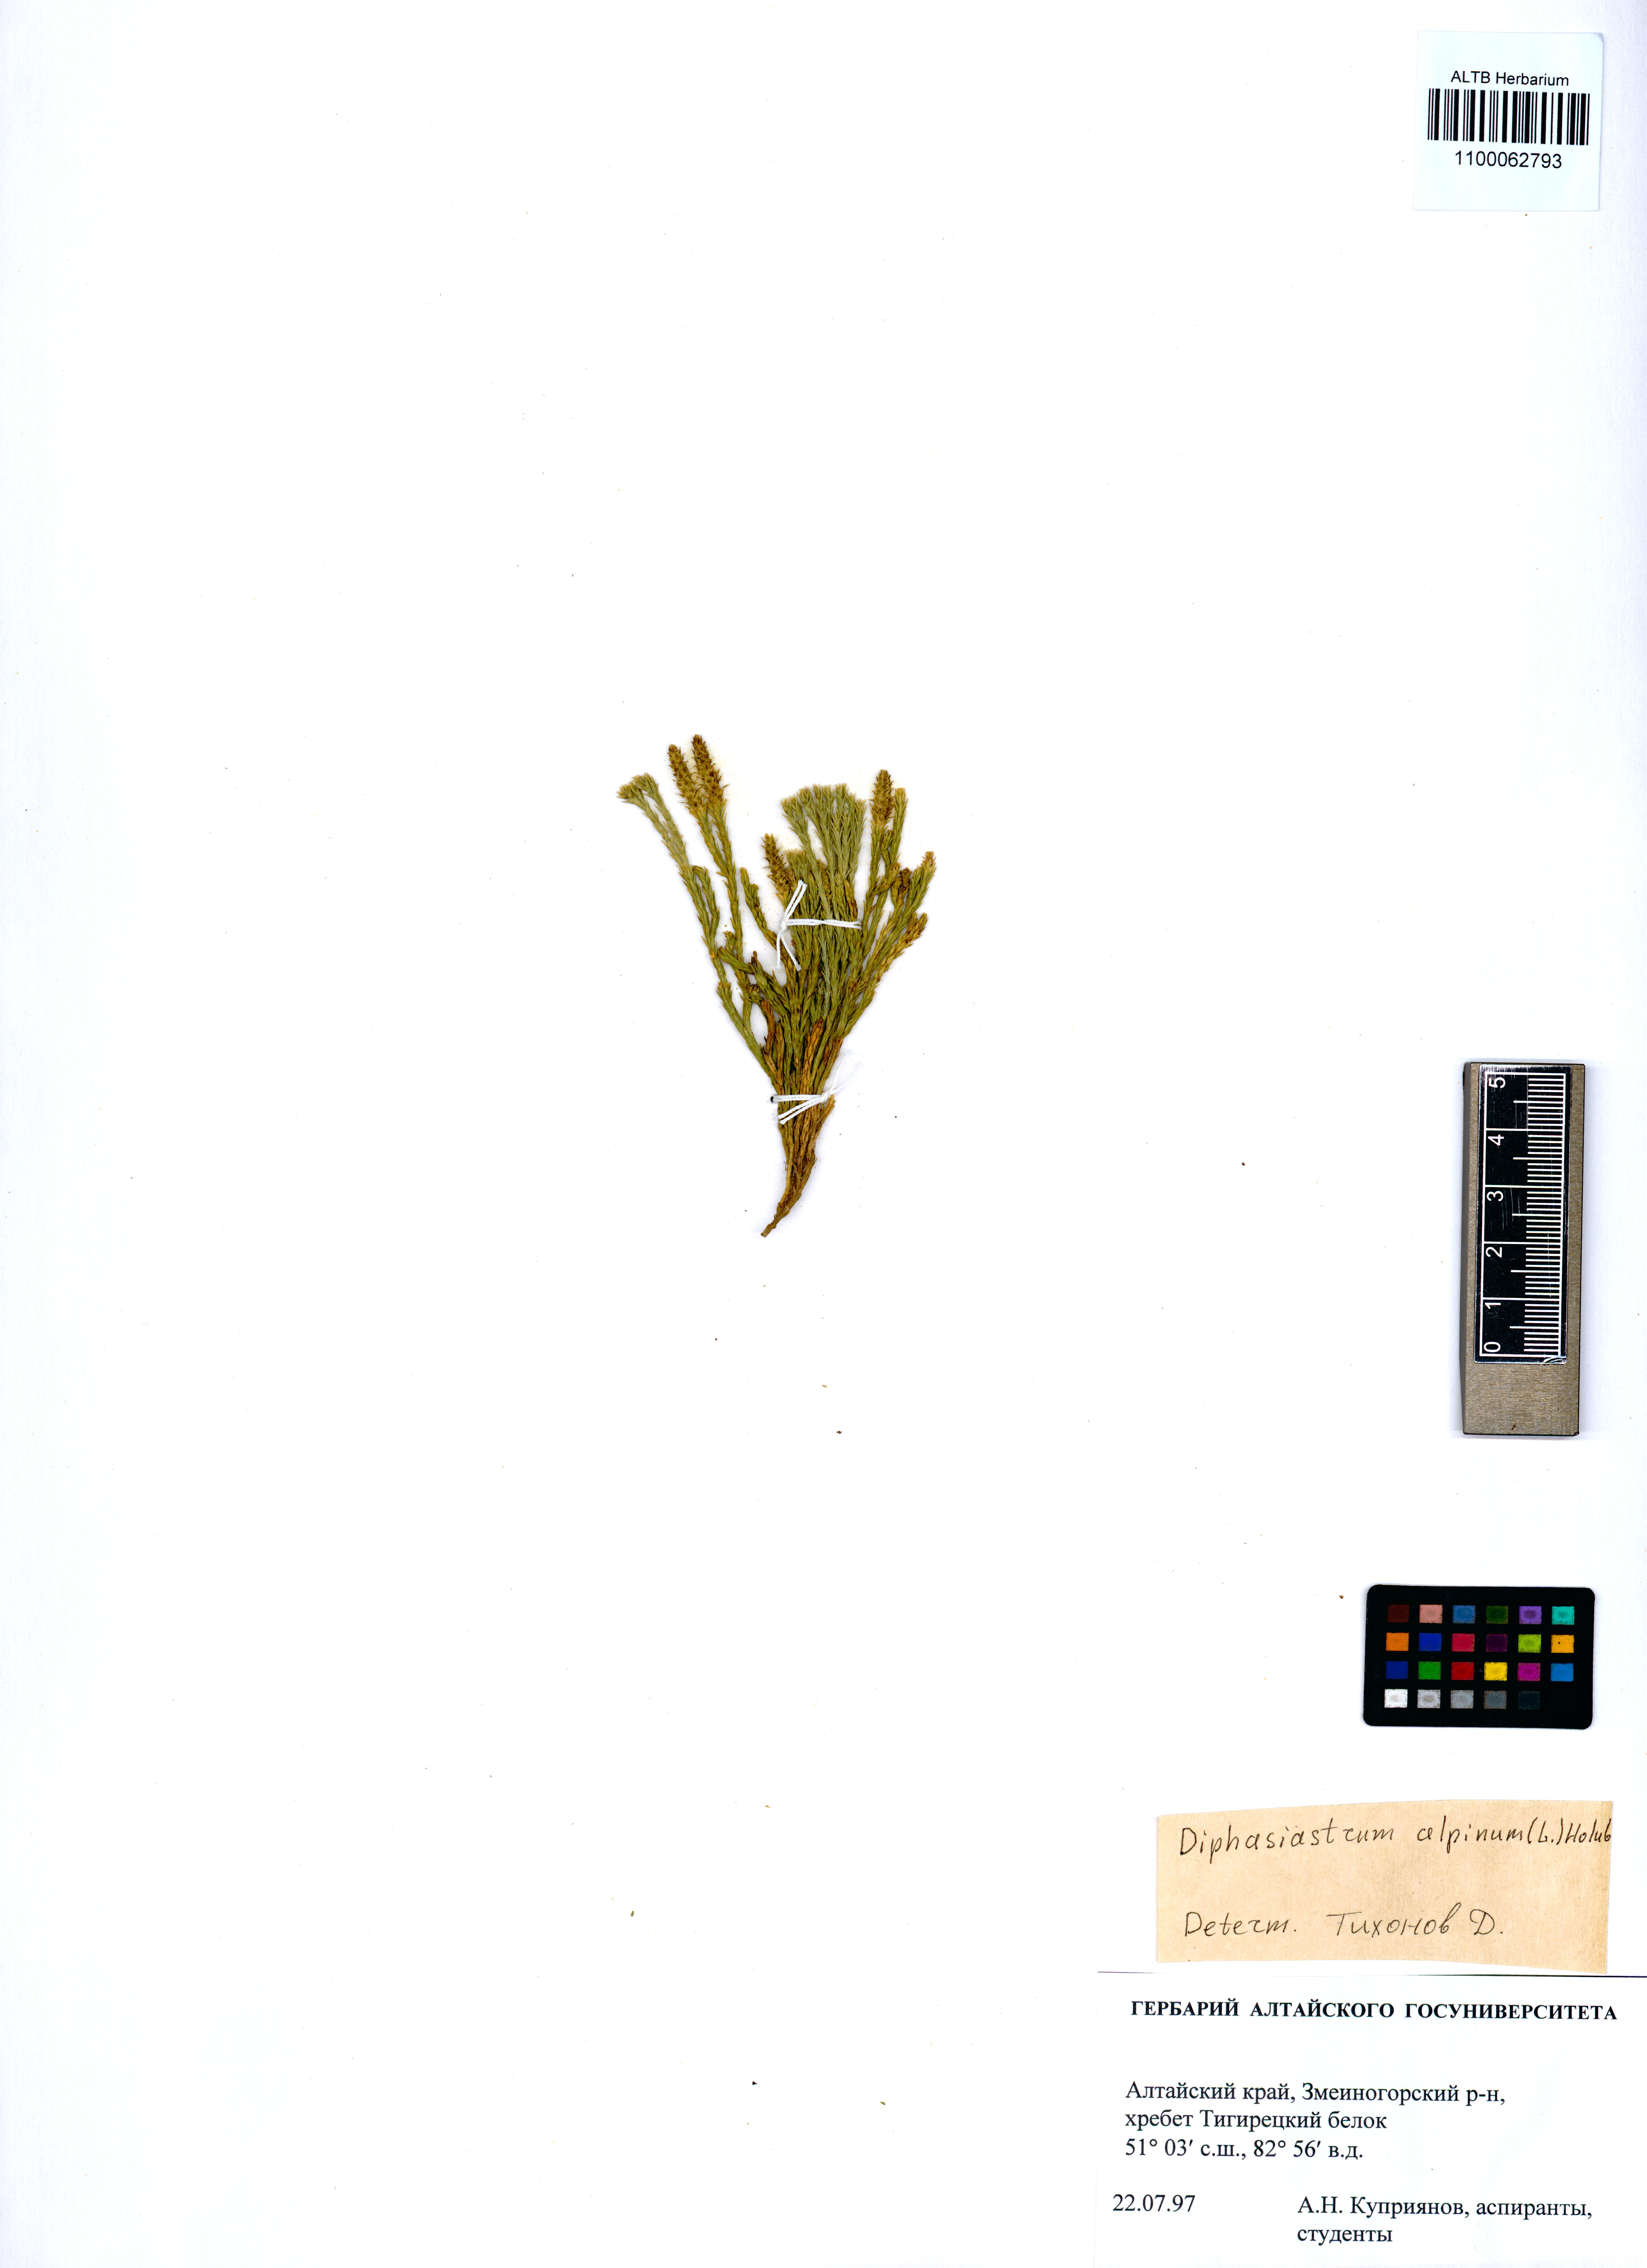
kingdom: Plantae
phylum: Tracheophyta
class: Lycopodiopsida
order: Lycopodiales
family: Lycopodiaceae
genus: Diphasiastrum
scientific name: Diphasiastrum alpinum
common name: Alpine clubmoss
